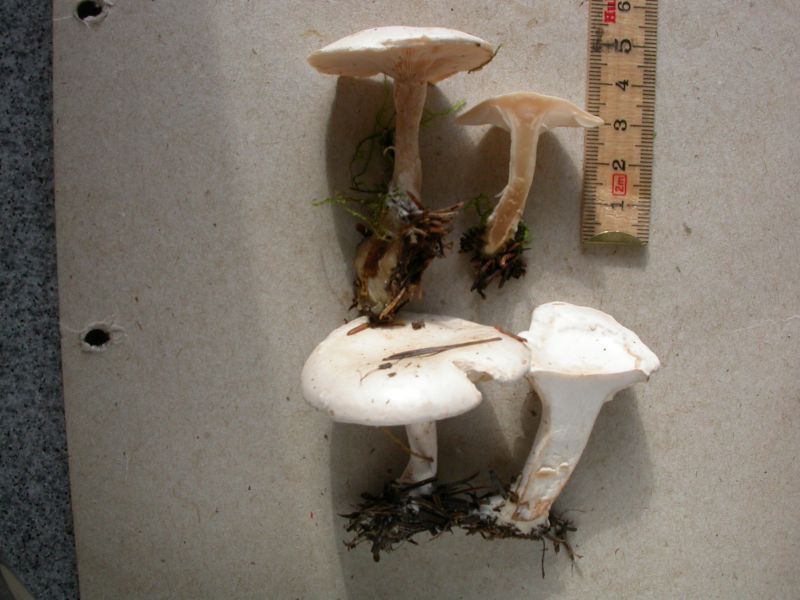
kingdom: Fungi
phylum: Basidiomycota
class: Agaricomycetes
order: Agaricales
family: Tricholomataceae
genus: Clitocybe
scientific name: Clitocybe phyllophila
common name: løv-tragthat
